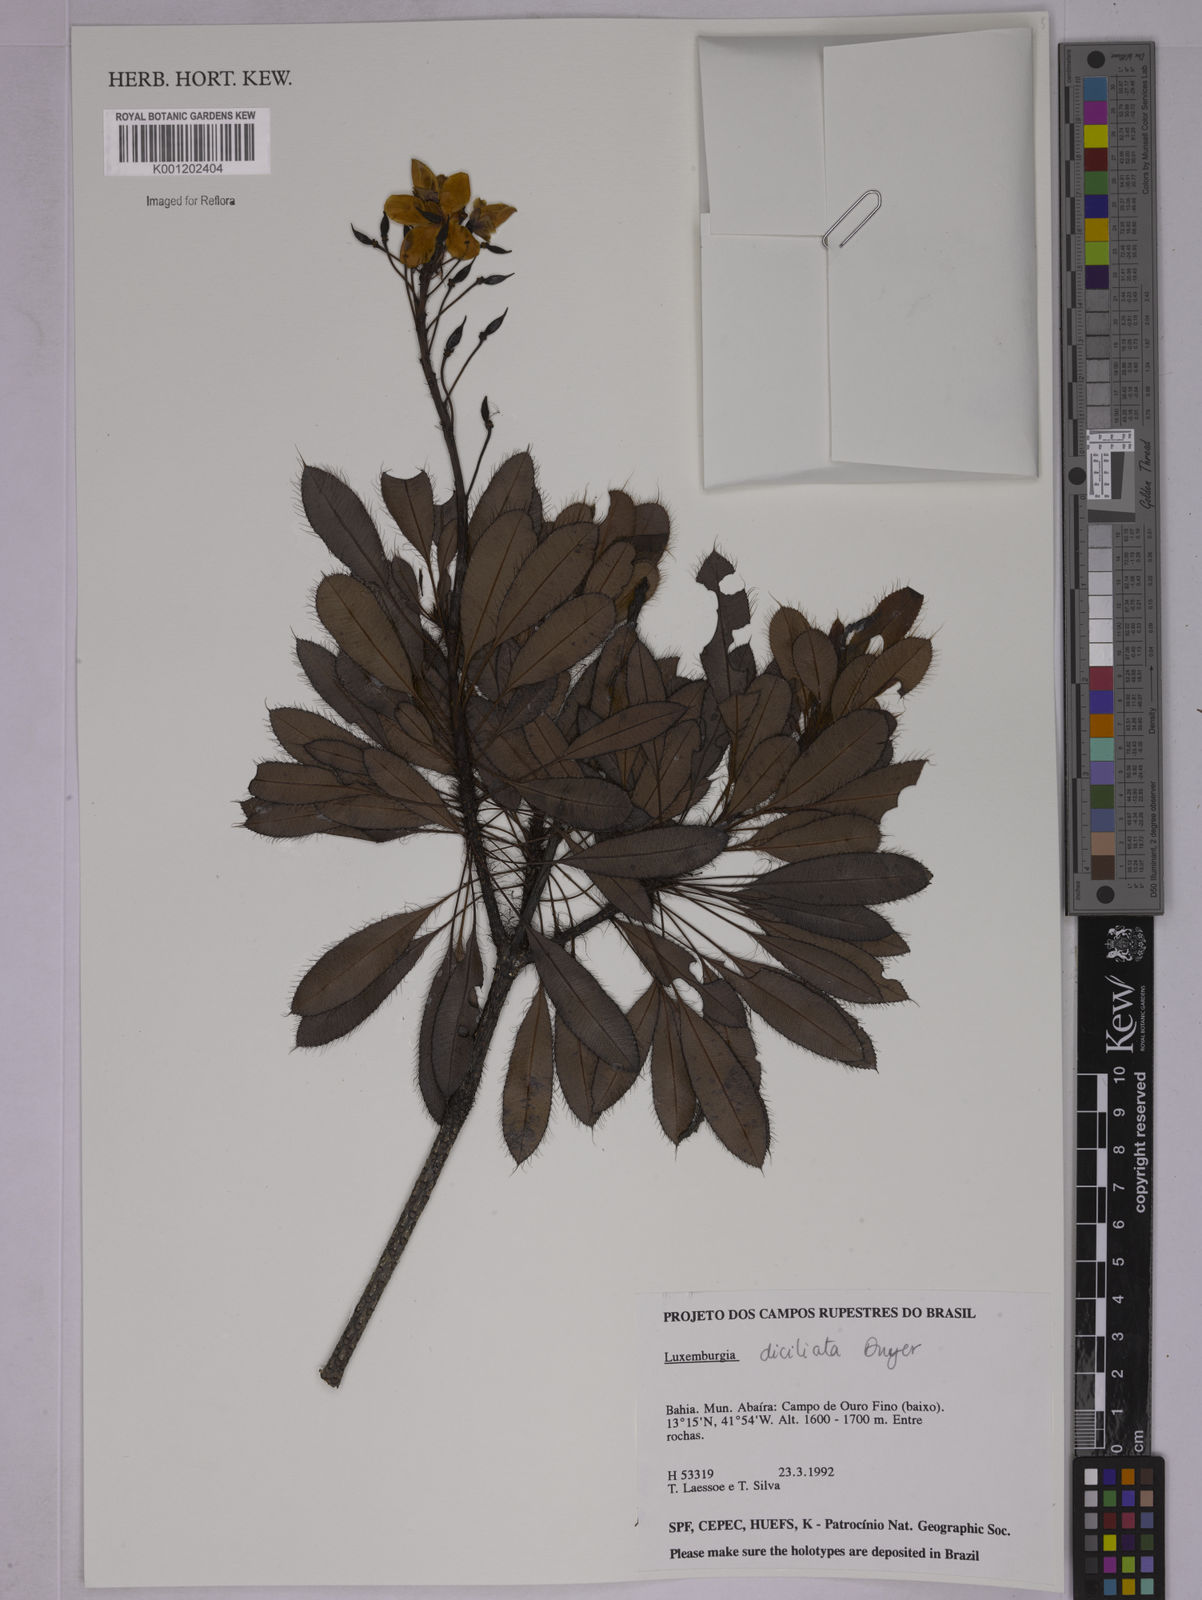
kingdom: Plantae
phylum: Tracheophyta
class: Magnoliopsida
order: Malpighiales
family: Ochnaceae
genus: Luxemburgia
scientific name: Luxemburgia diciliata
